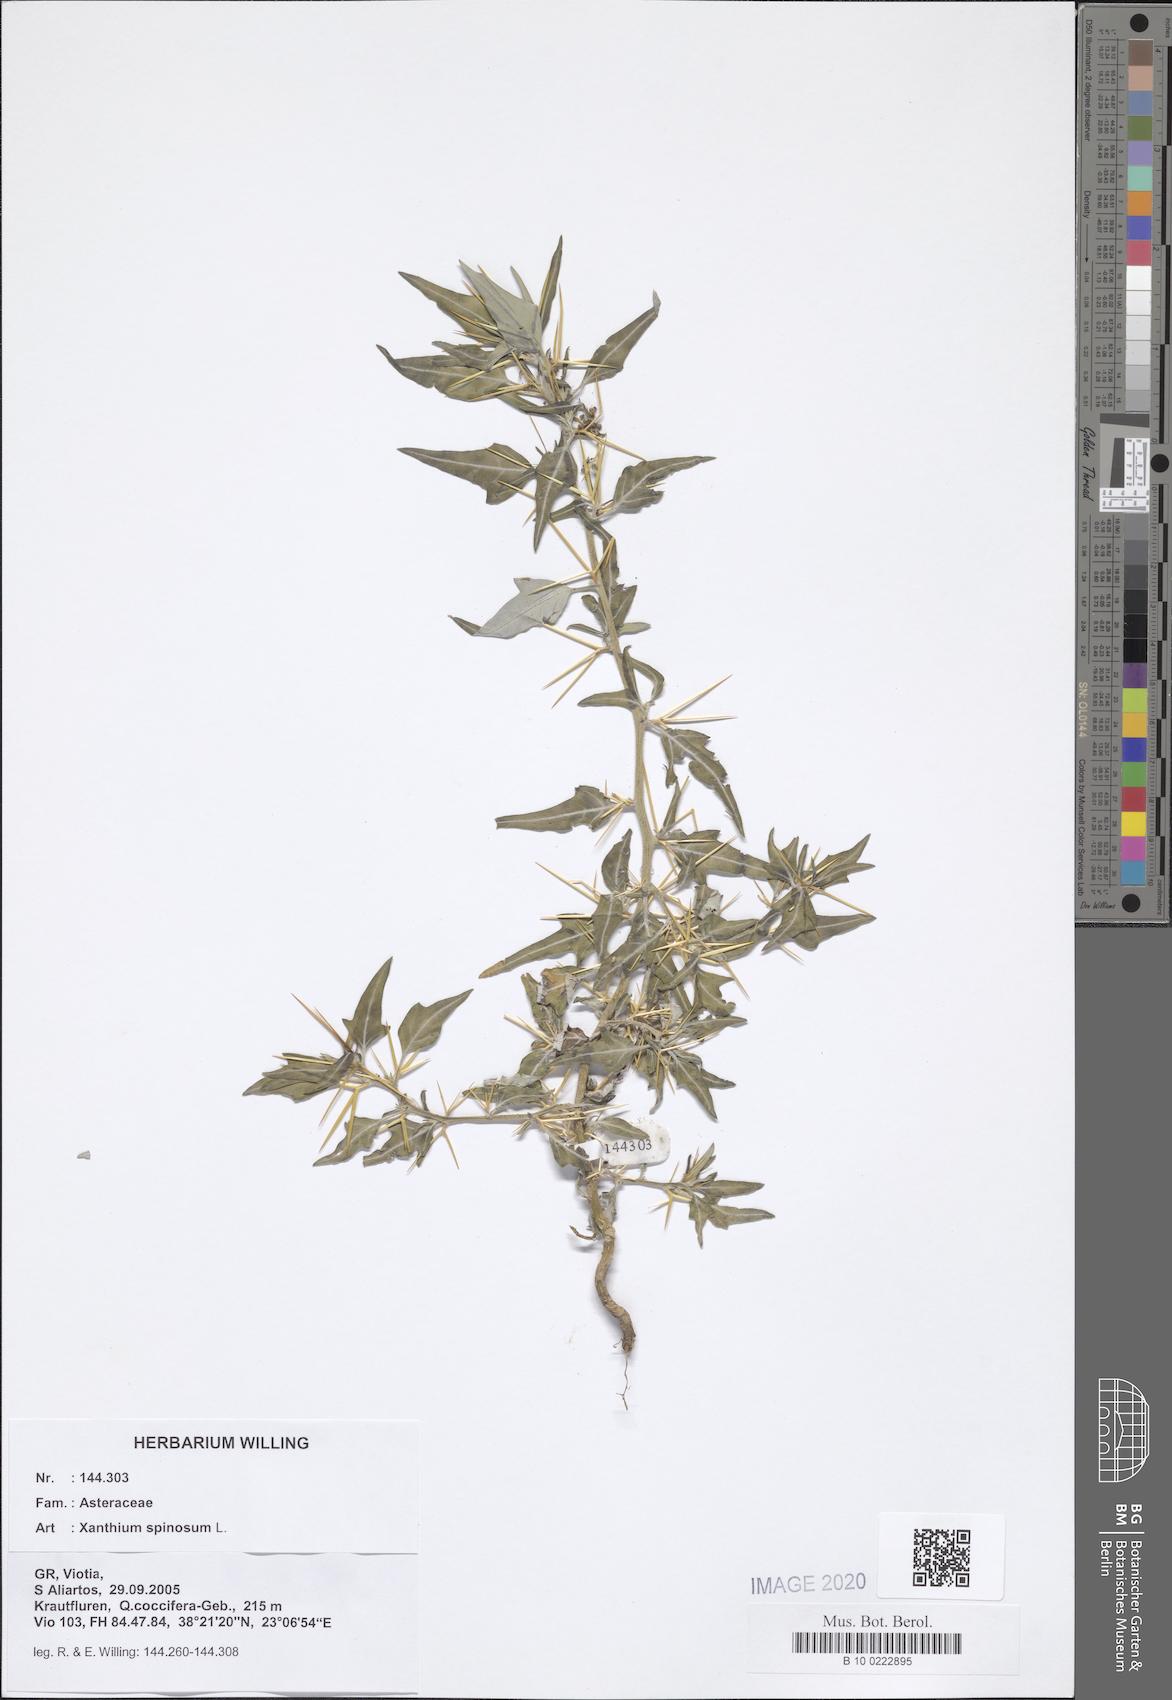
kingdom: Plantae
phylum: Tracheophyta
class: Magnoliopsida
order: Asterales
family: Asteraceae
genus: Xanthium
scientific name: Xanthium spinosum
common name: Spiny cocklebur
